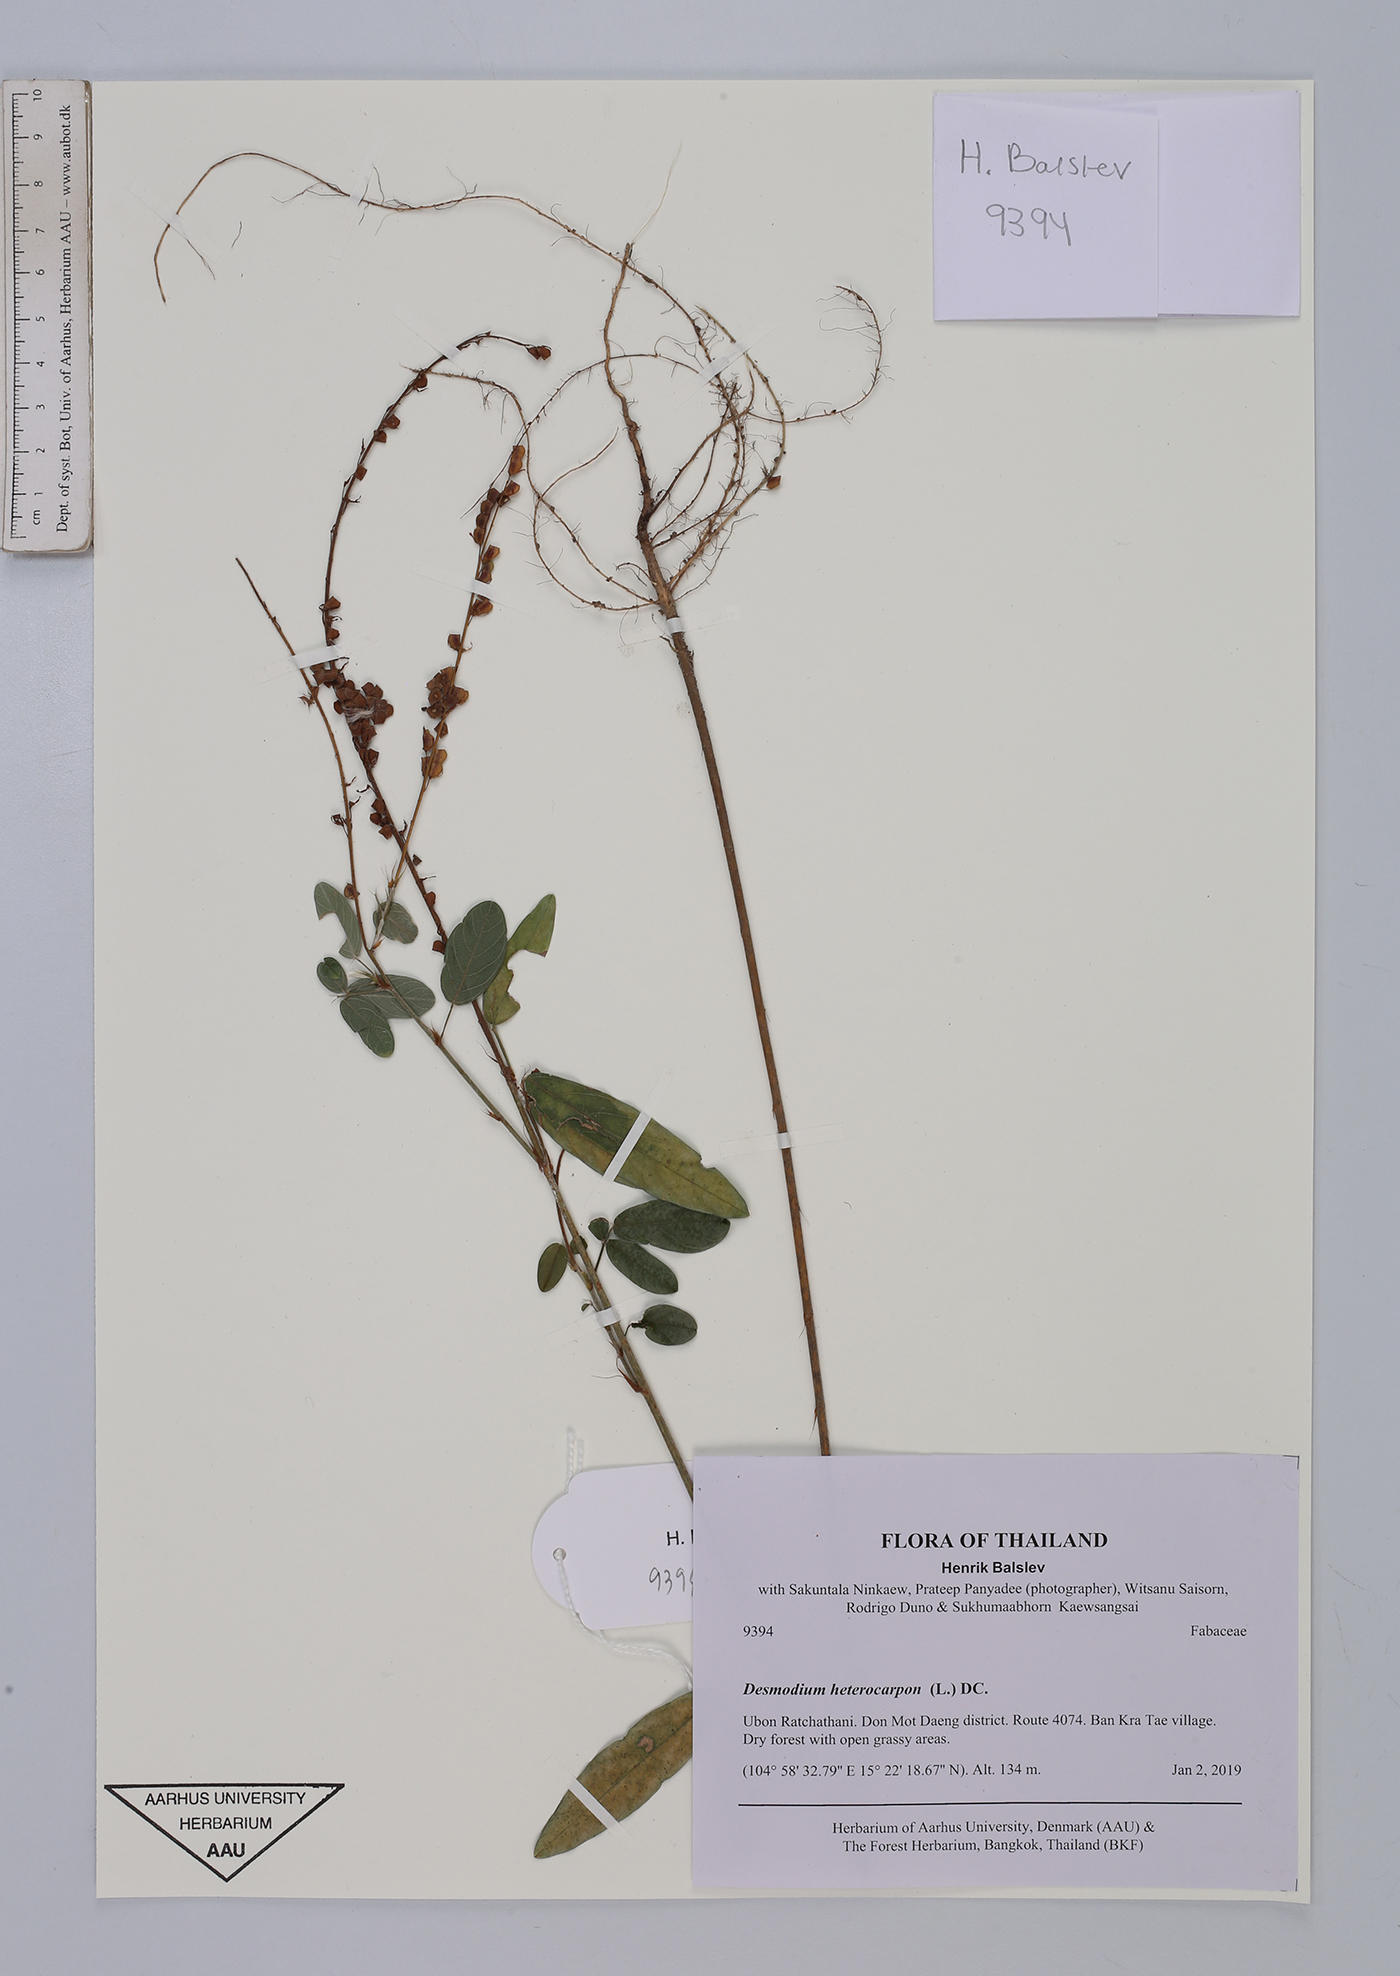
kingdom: Plantae
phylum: Tracheophyta
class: Magnoliopsida
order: Fabales
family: Fabaceae
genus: Grona
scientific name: Grona heterocarpos
